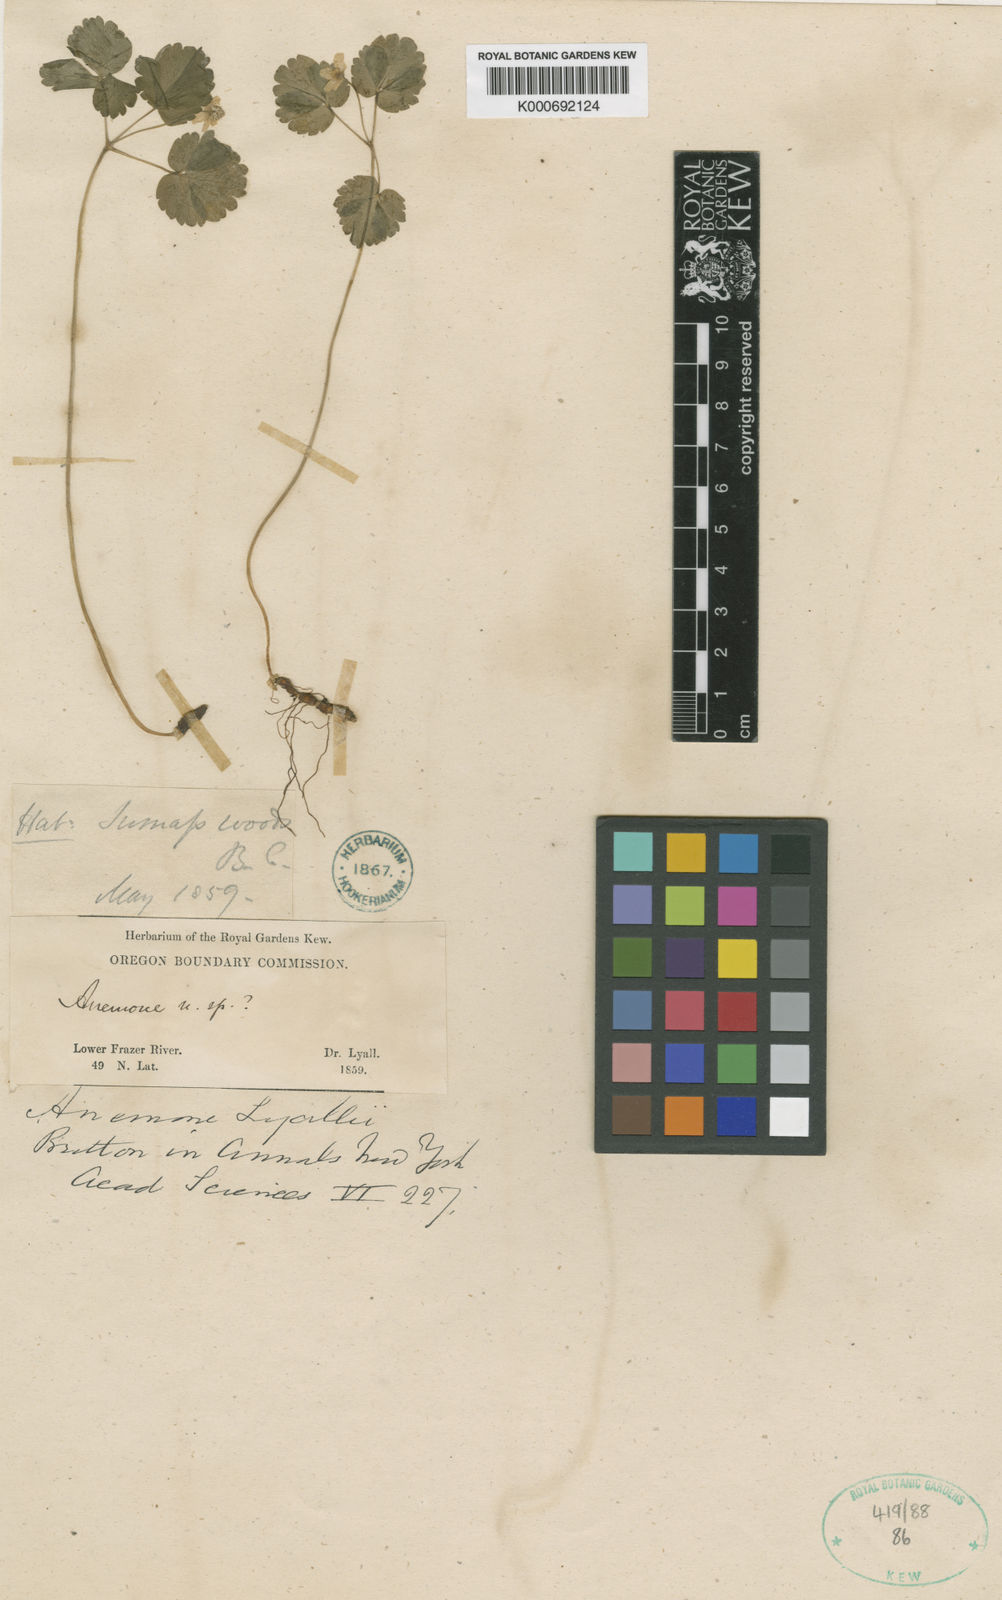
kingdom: Plantae
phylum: Tracheophyta
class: Magnoliopsida
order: Ranunculales
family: Ranunculaceae
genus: Anemone
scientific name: Anemone
